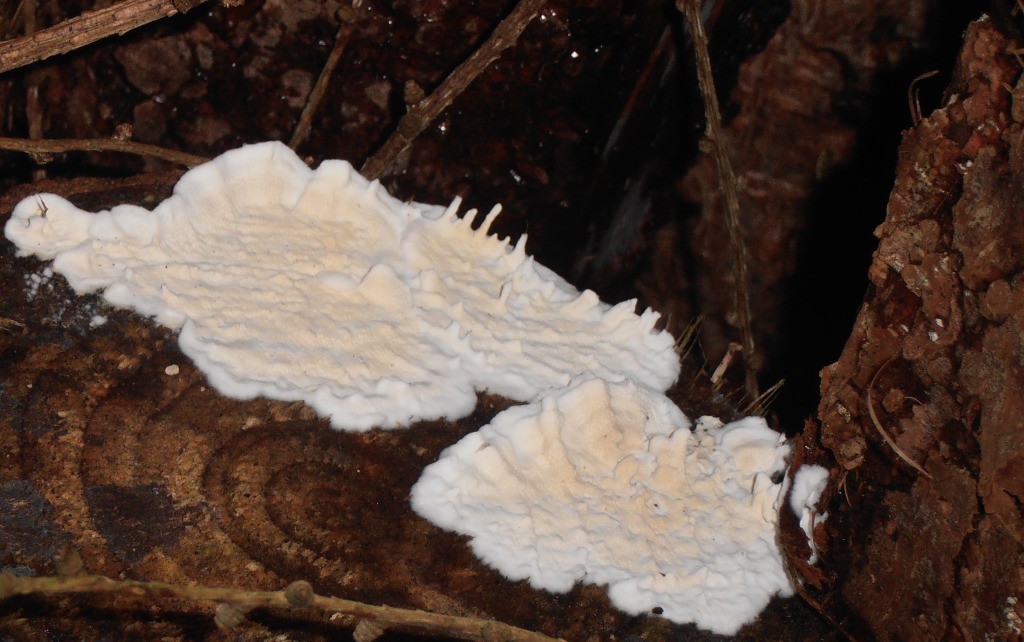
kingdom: Fungi
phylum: Basidiomycota
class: Agaricomycetes
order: Polyporales
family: Incrustoporiaceae
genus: Skeletocutis
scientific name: Skeletocutis amorpha
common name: orange krystalporesvamp
